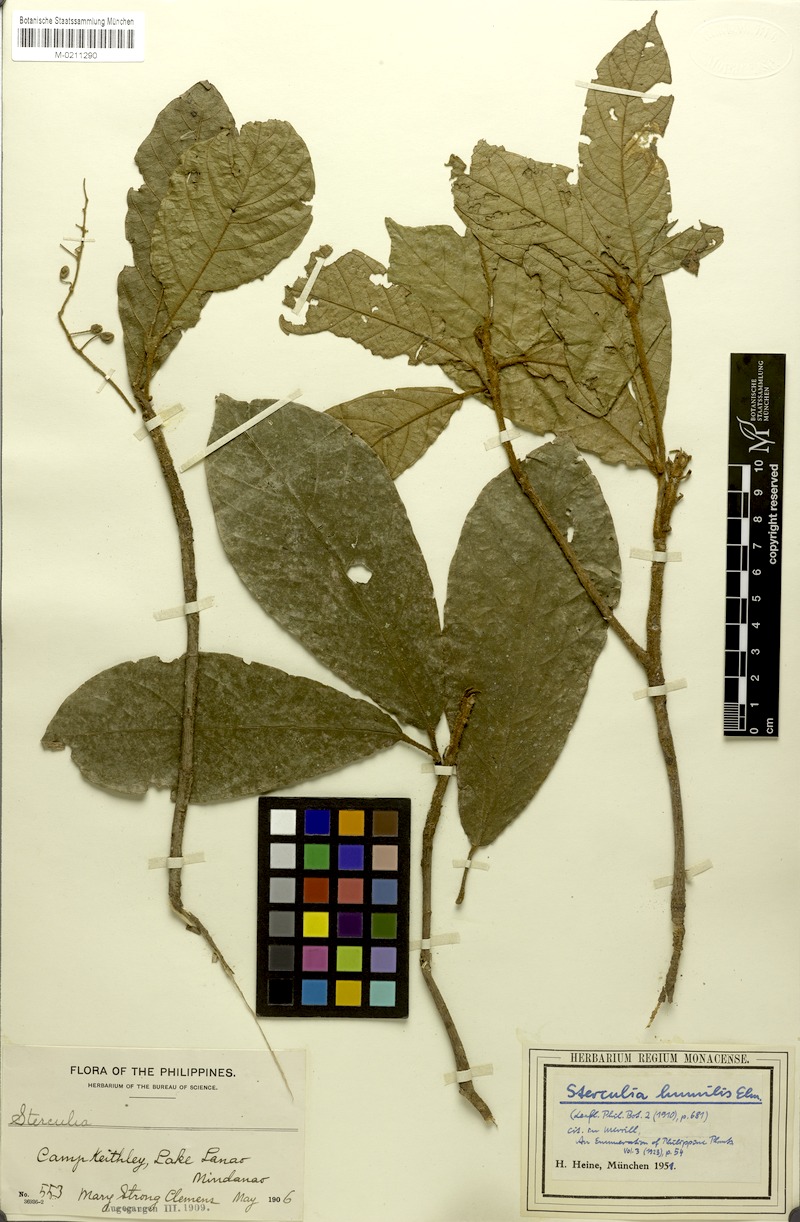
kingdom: Plantae
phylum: Tracheophyta
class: Magnoliopsida
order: Malvales
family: Malvaceae
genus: Sterculia
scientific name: Sterculia rubiginosa
